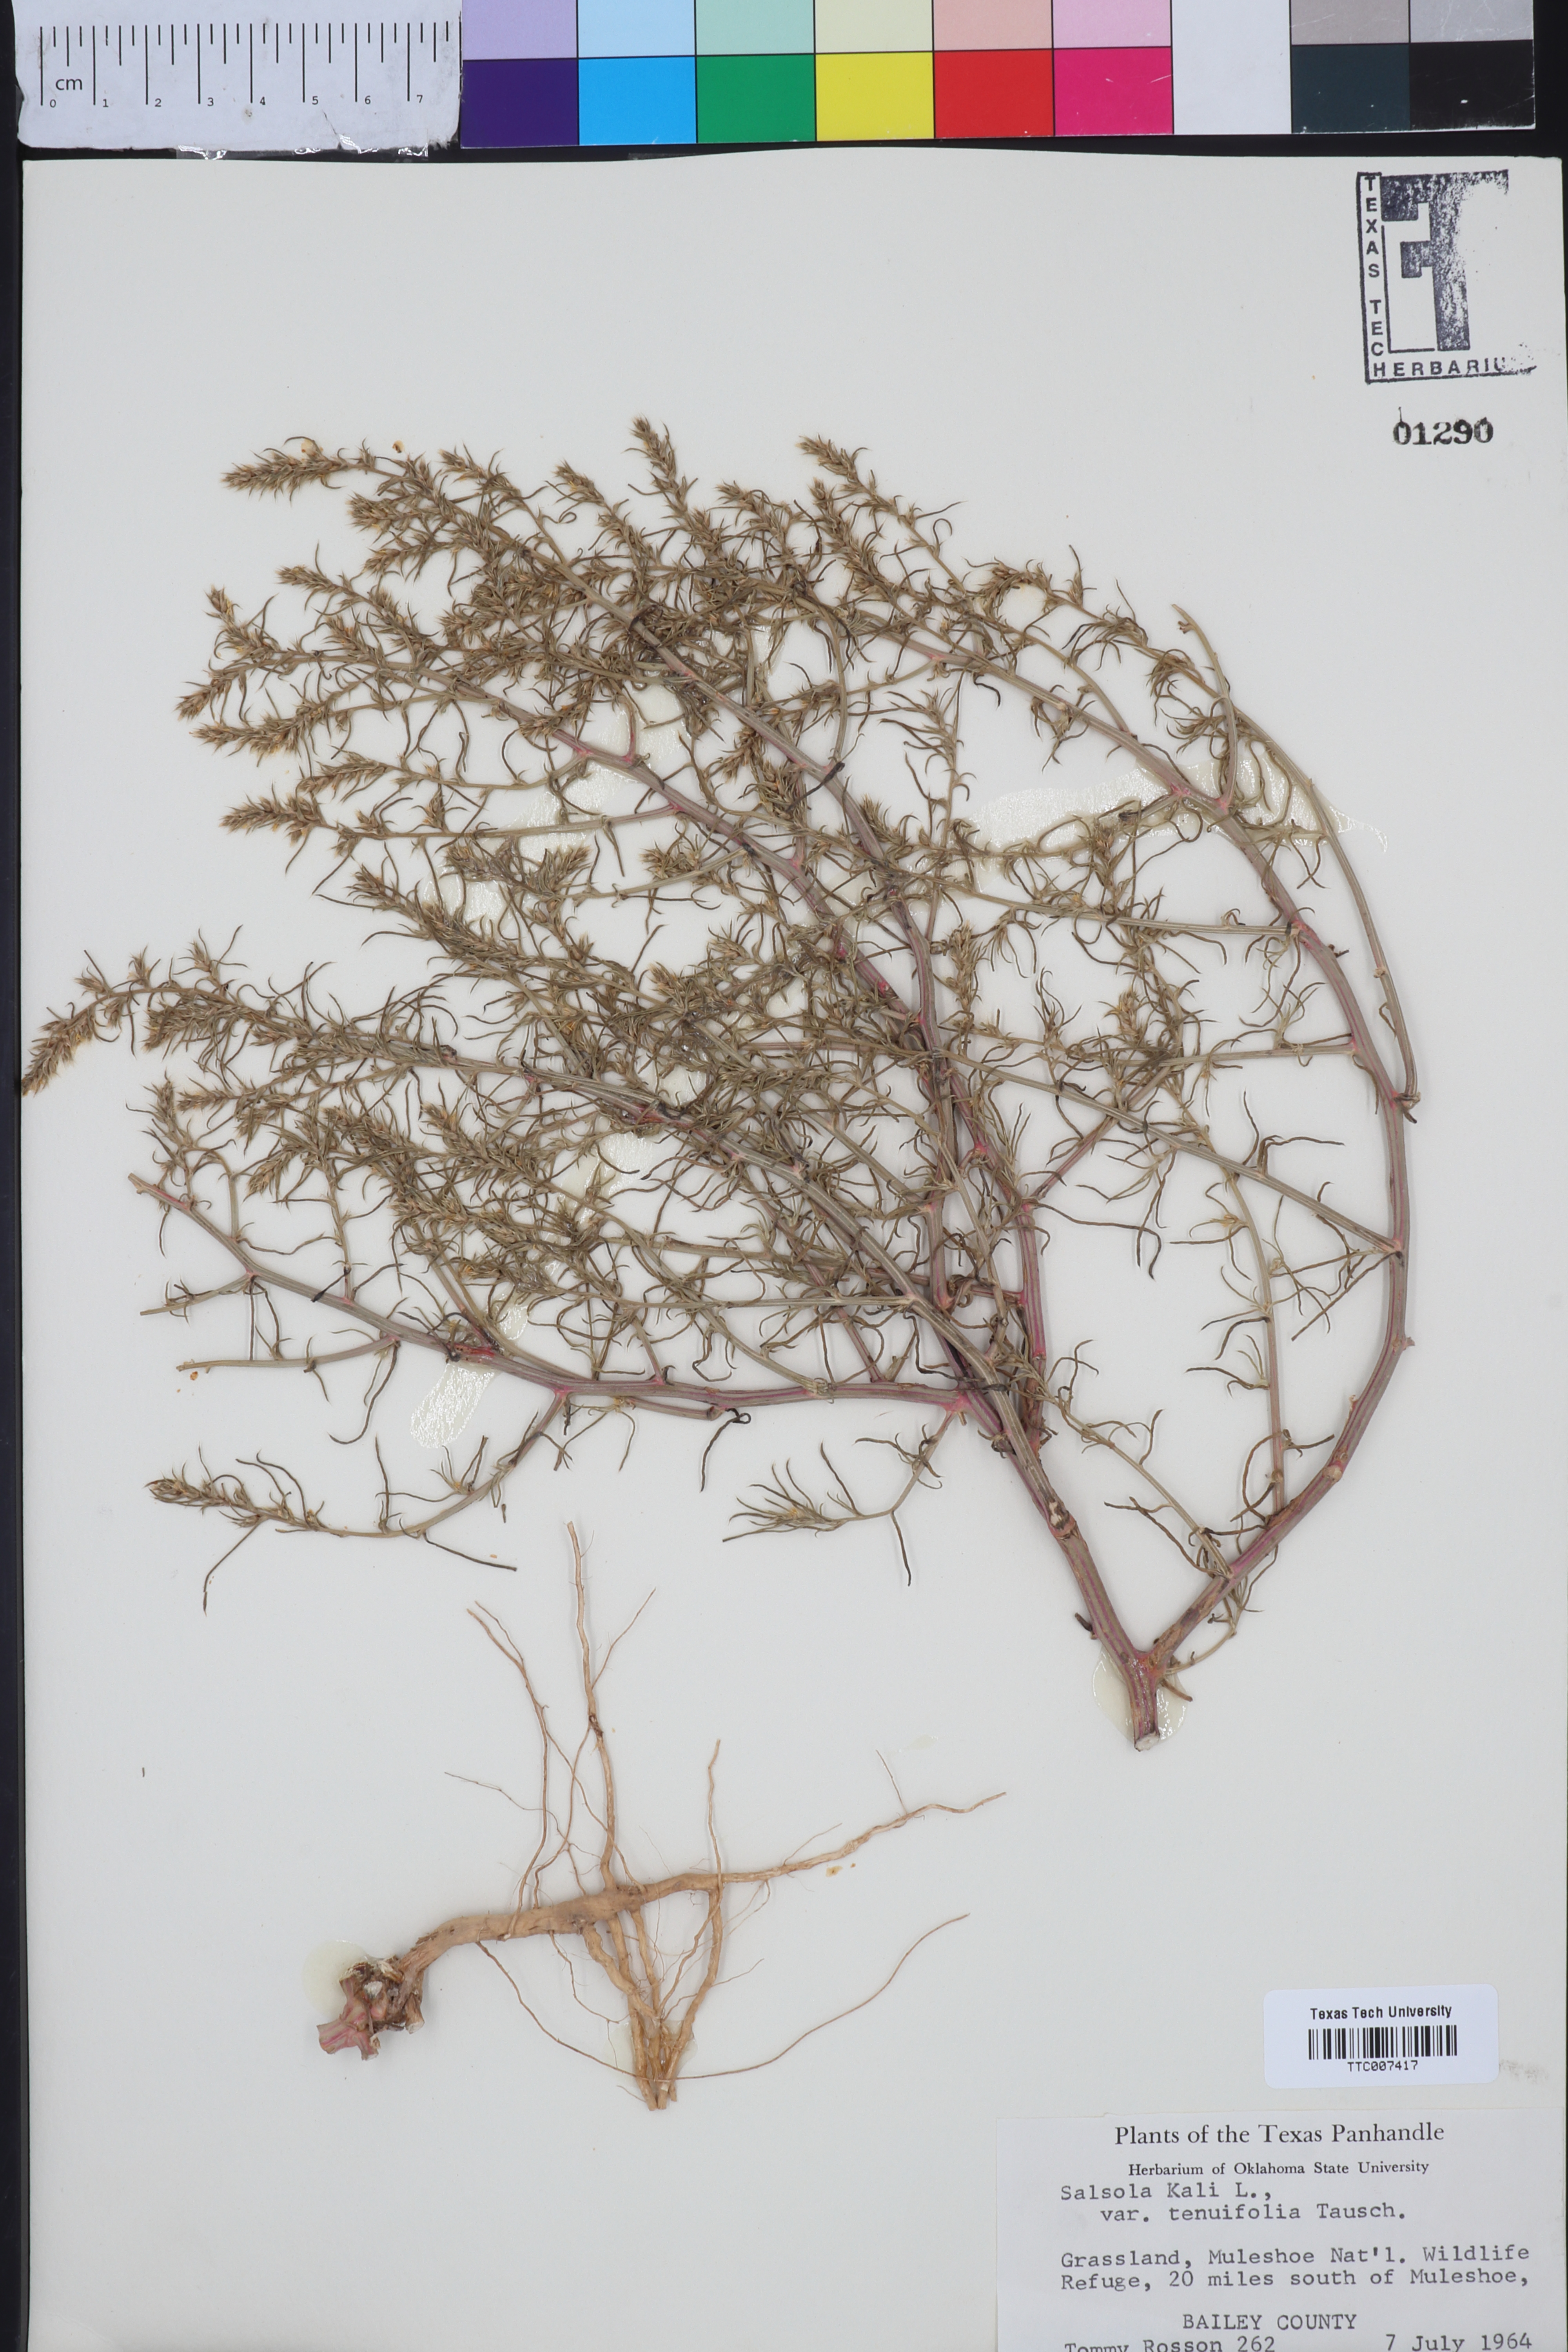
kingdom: Plantae
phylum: Tracheophyta
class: Magnoliopsida
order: Caryophyllales
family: Amaranthaceae
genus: Salsola
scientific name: Salsola tragus
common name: Prickly russian thistle
